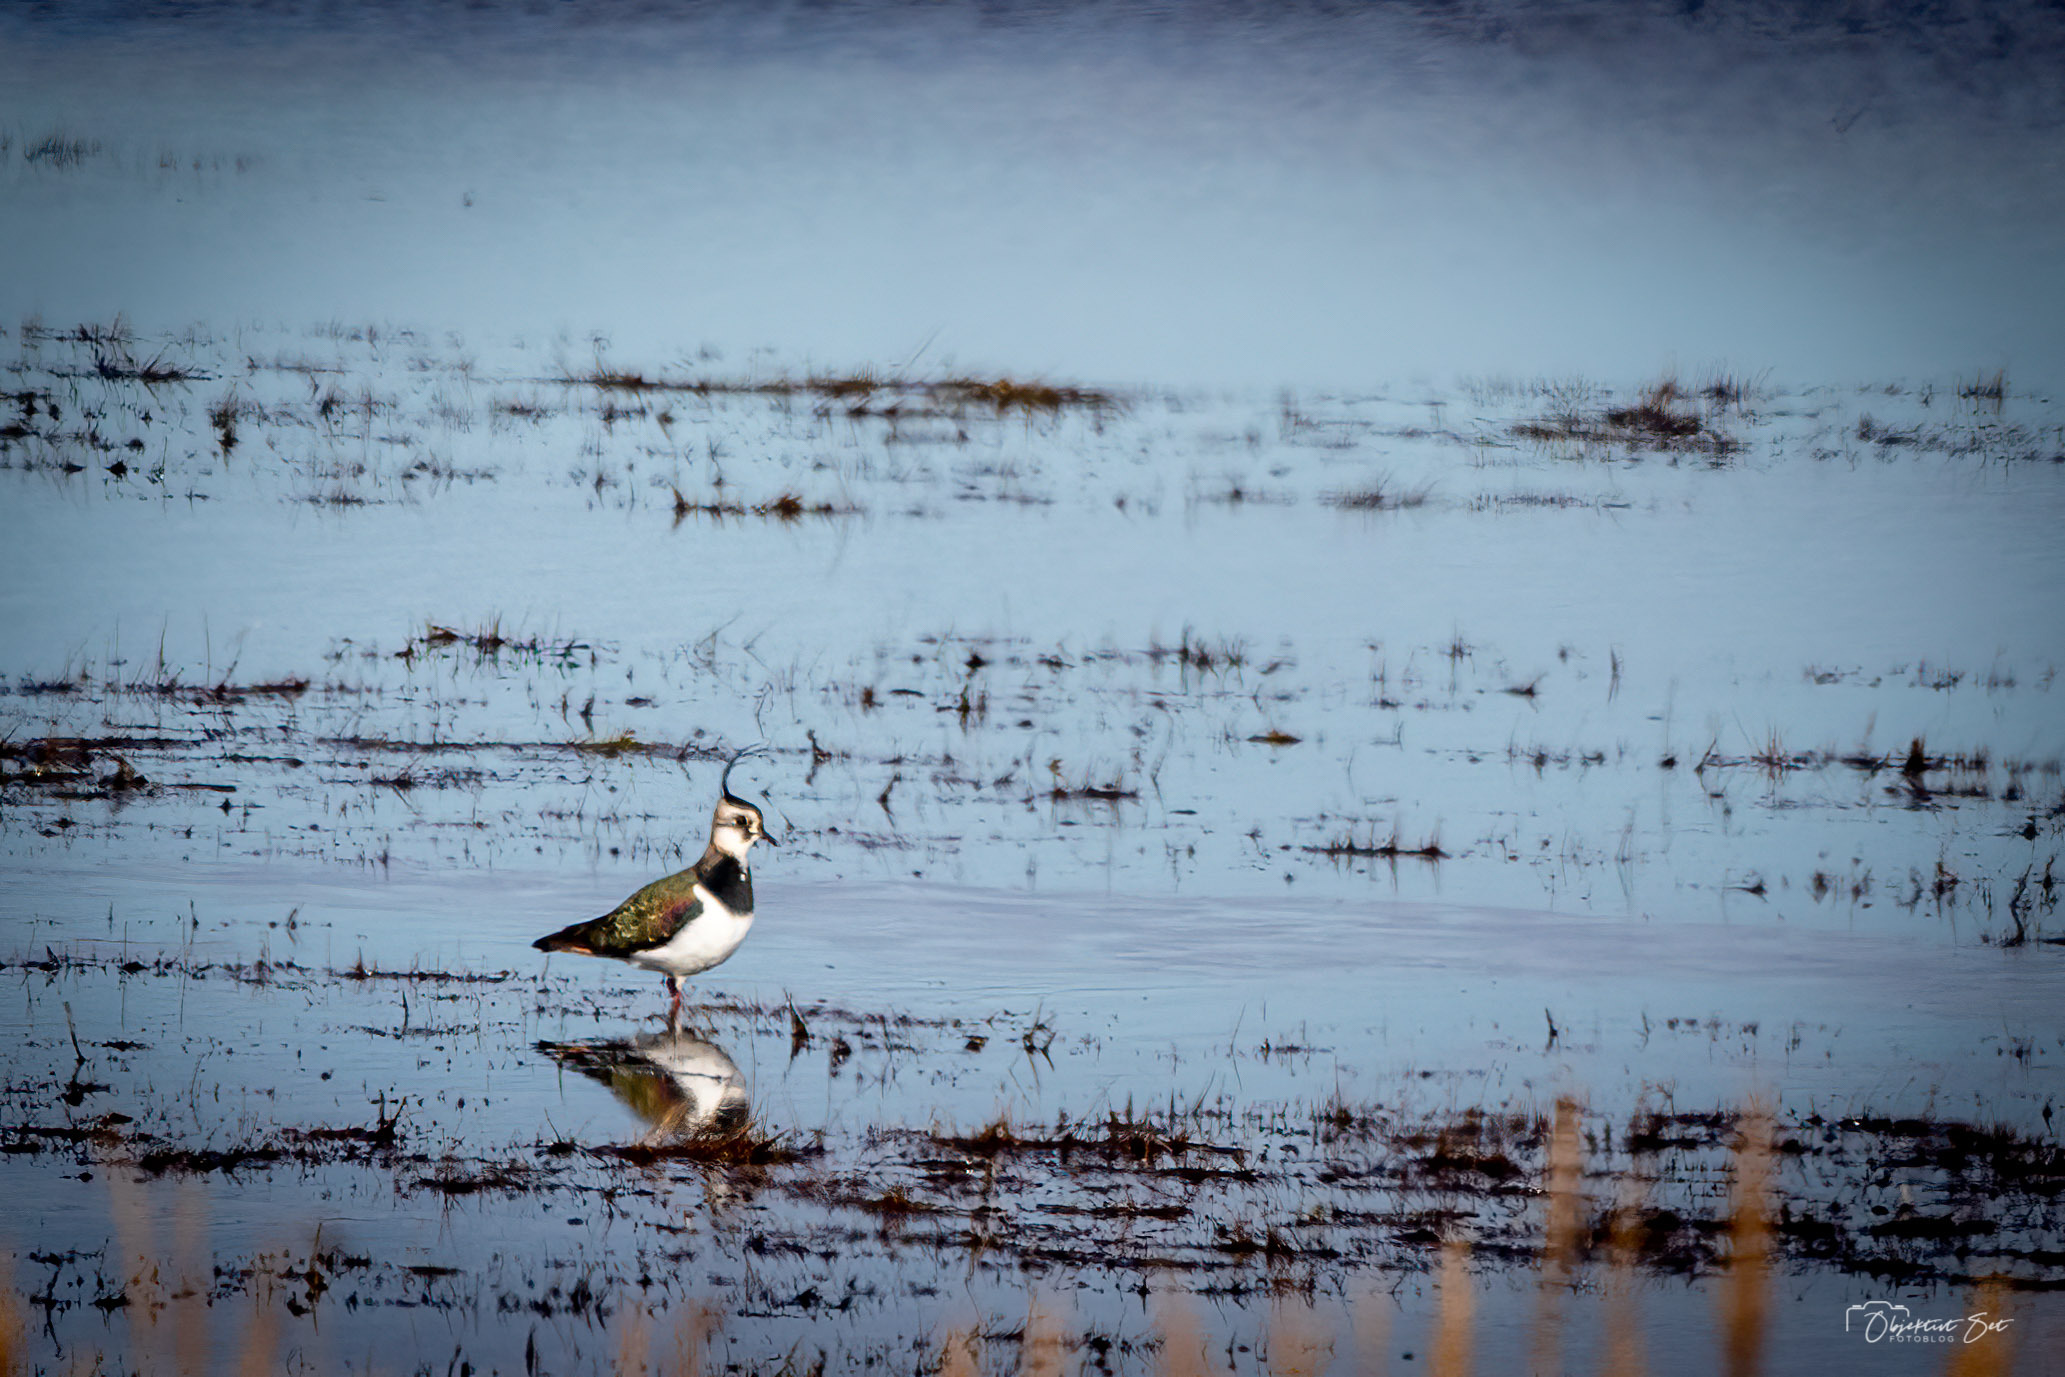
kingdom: Animalia
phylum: Chordata
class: Aves
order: Charadriiformes
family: Charadriidae
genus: Vanellus
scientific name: Vanellus vanellus
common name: Vibe
